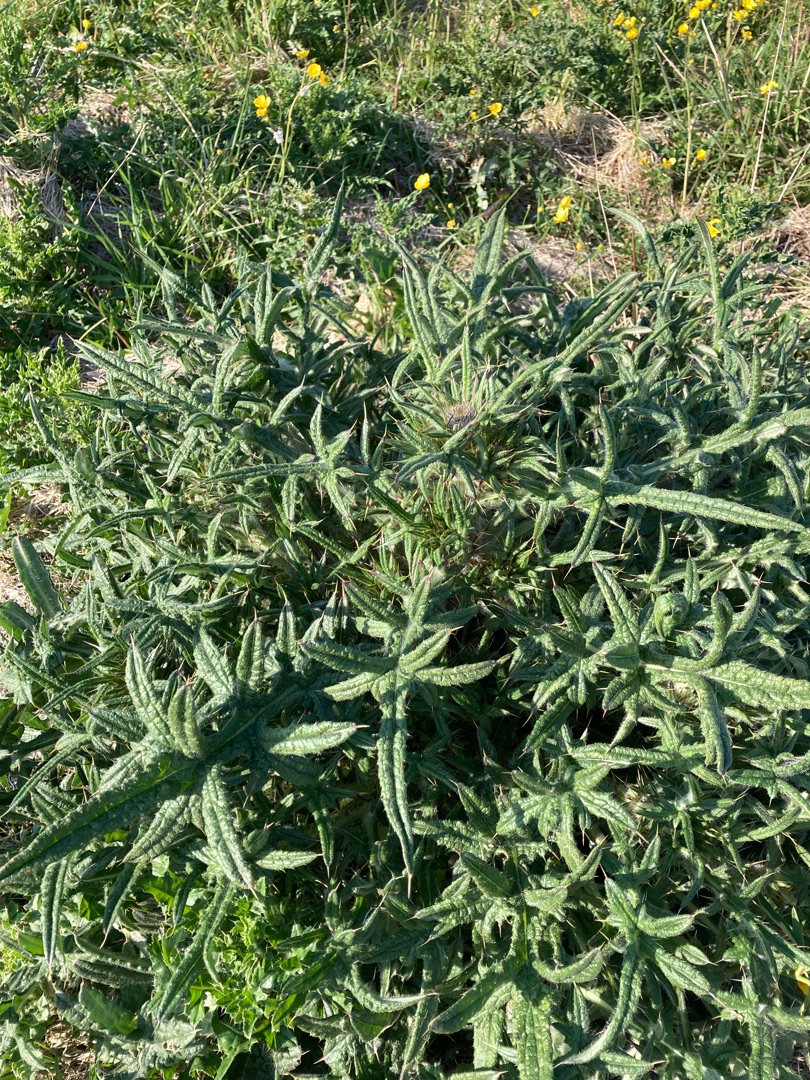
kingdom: Plantae
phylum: Tracheophyta
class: Magnoliopsida
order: Asterales
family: Asteraceae
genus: Cirsium
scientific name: Cirsium vulgare
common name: Horse-tidsel
